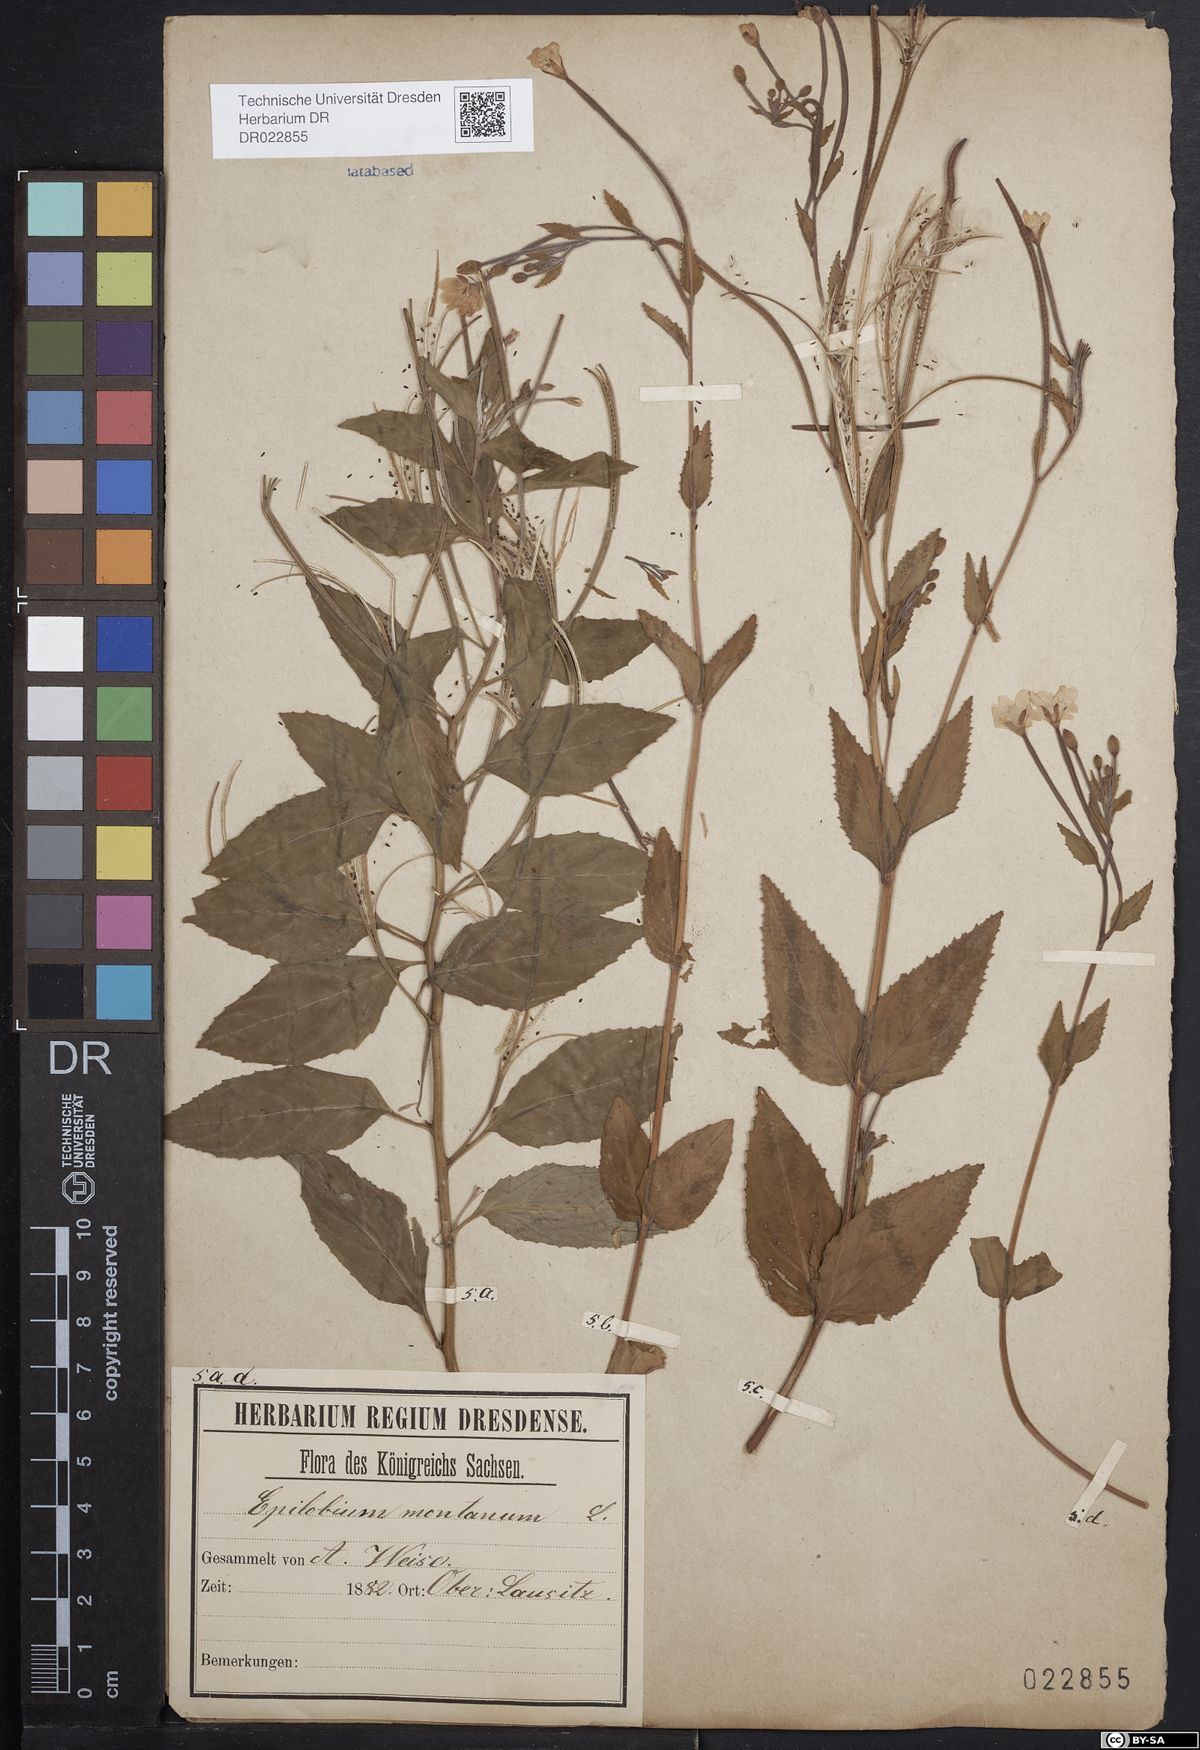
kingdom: Plantae
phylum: Tracheophyta
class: Magnoliopsida
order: Myrtales
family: Onagraceae
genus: Epilobium
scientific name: Epilobium montanum
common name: Broad-leaved willowherb
